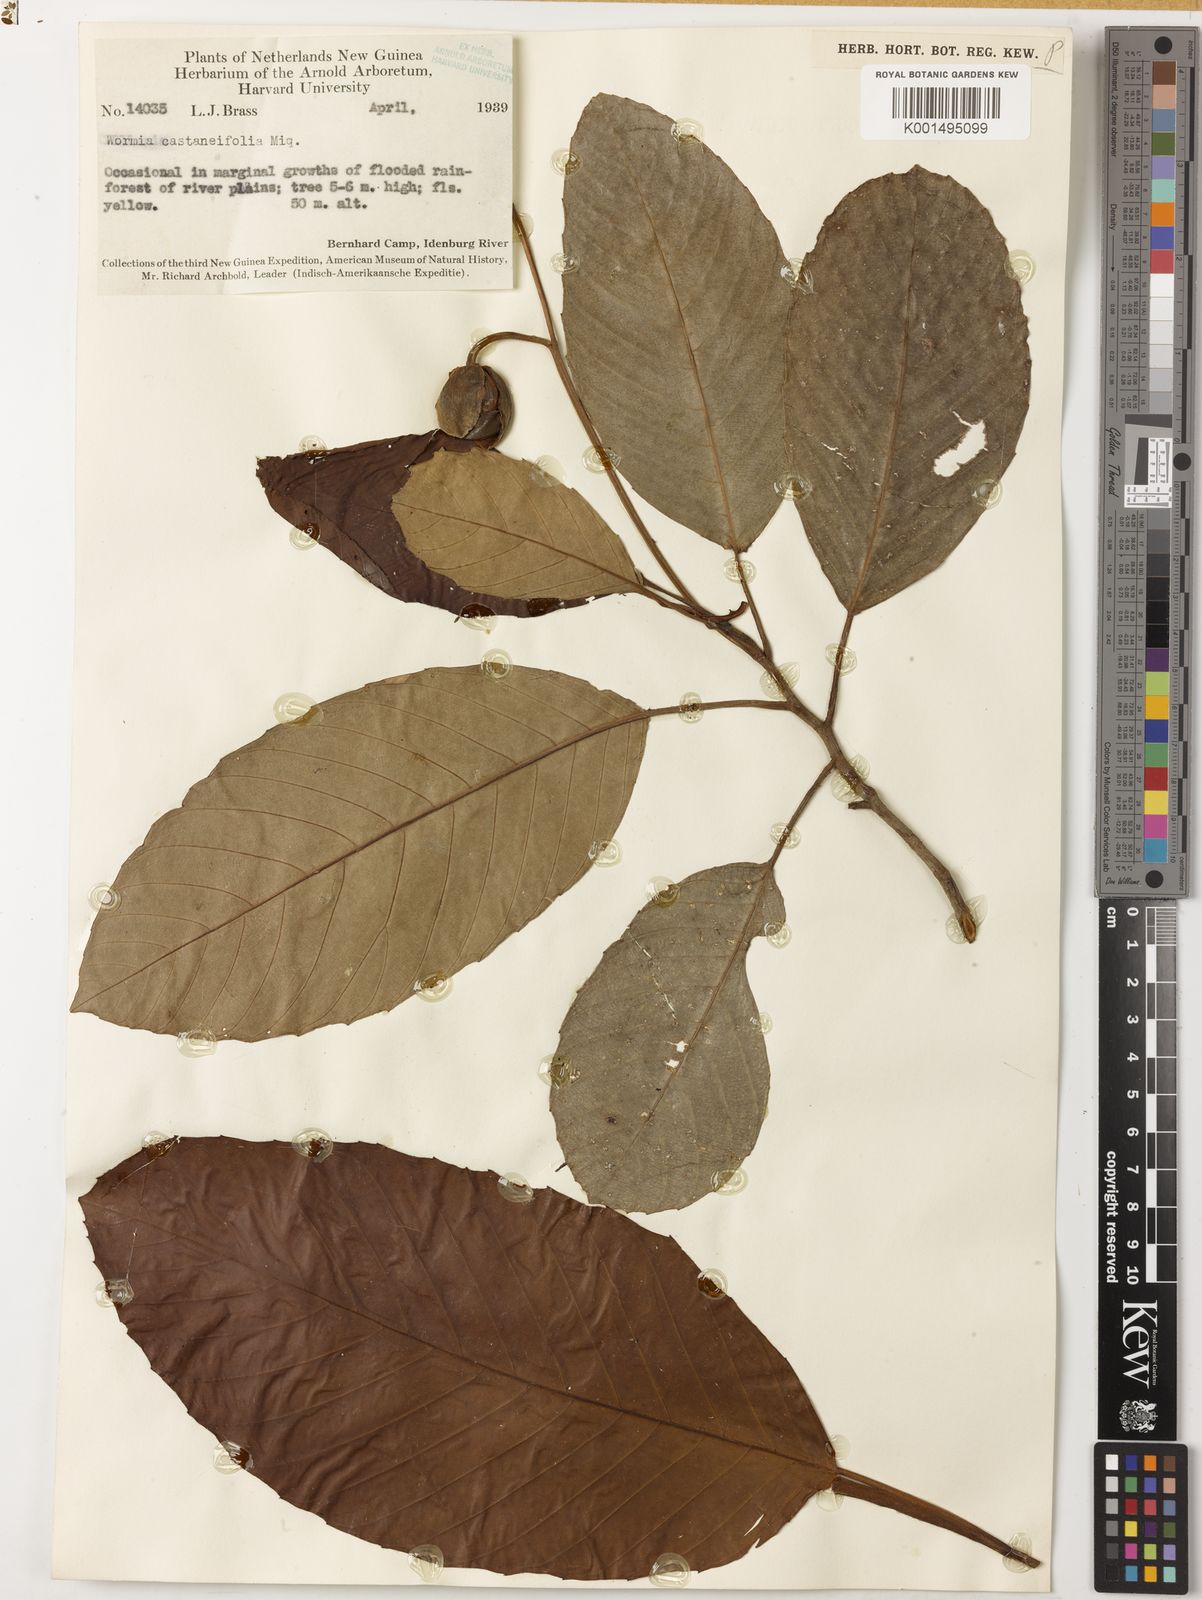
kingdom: Plantae
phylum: Tracheophyta
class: Magnoliopsida
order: Dilleniales
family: Dilleniaceae
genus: Dillenia
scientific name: Dillenia castaneifolia
